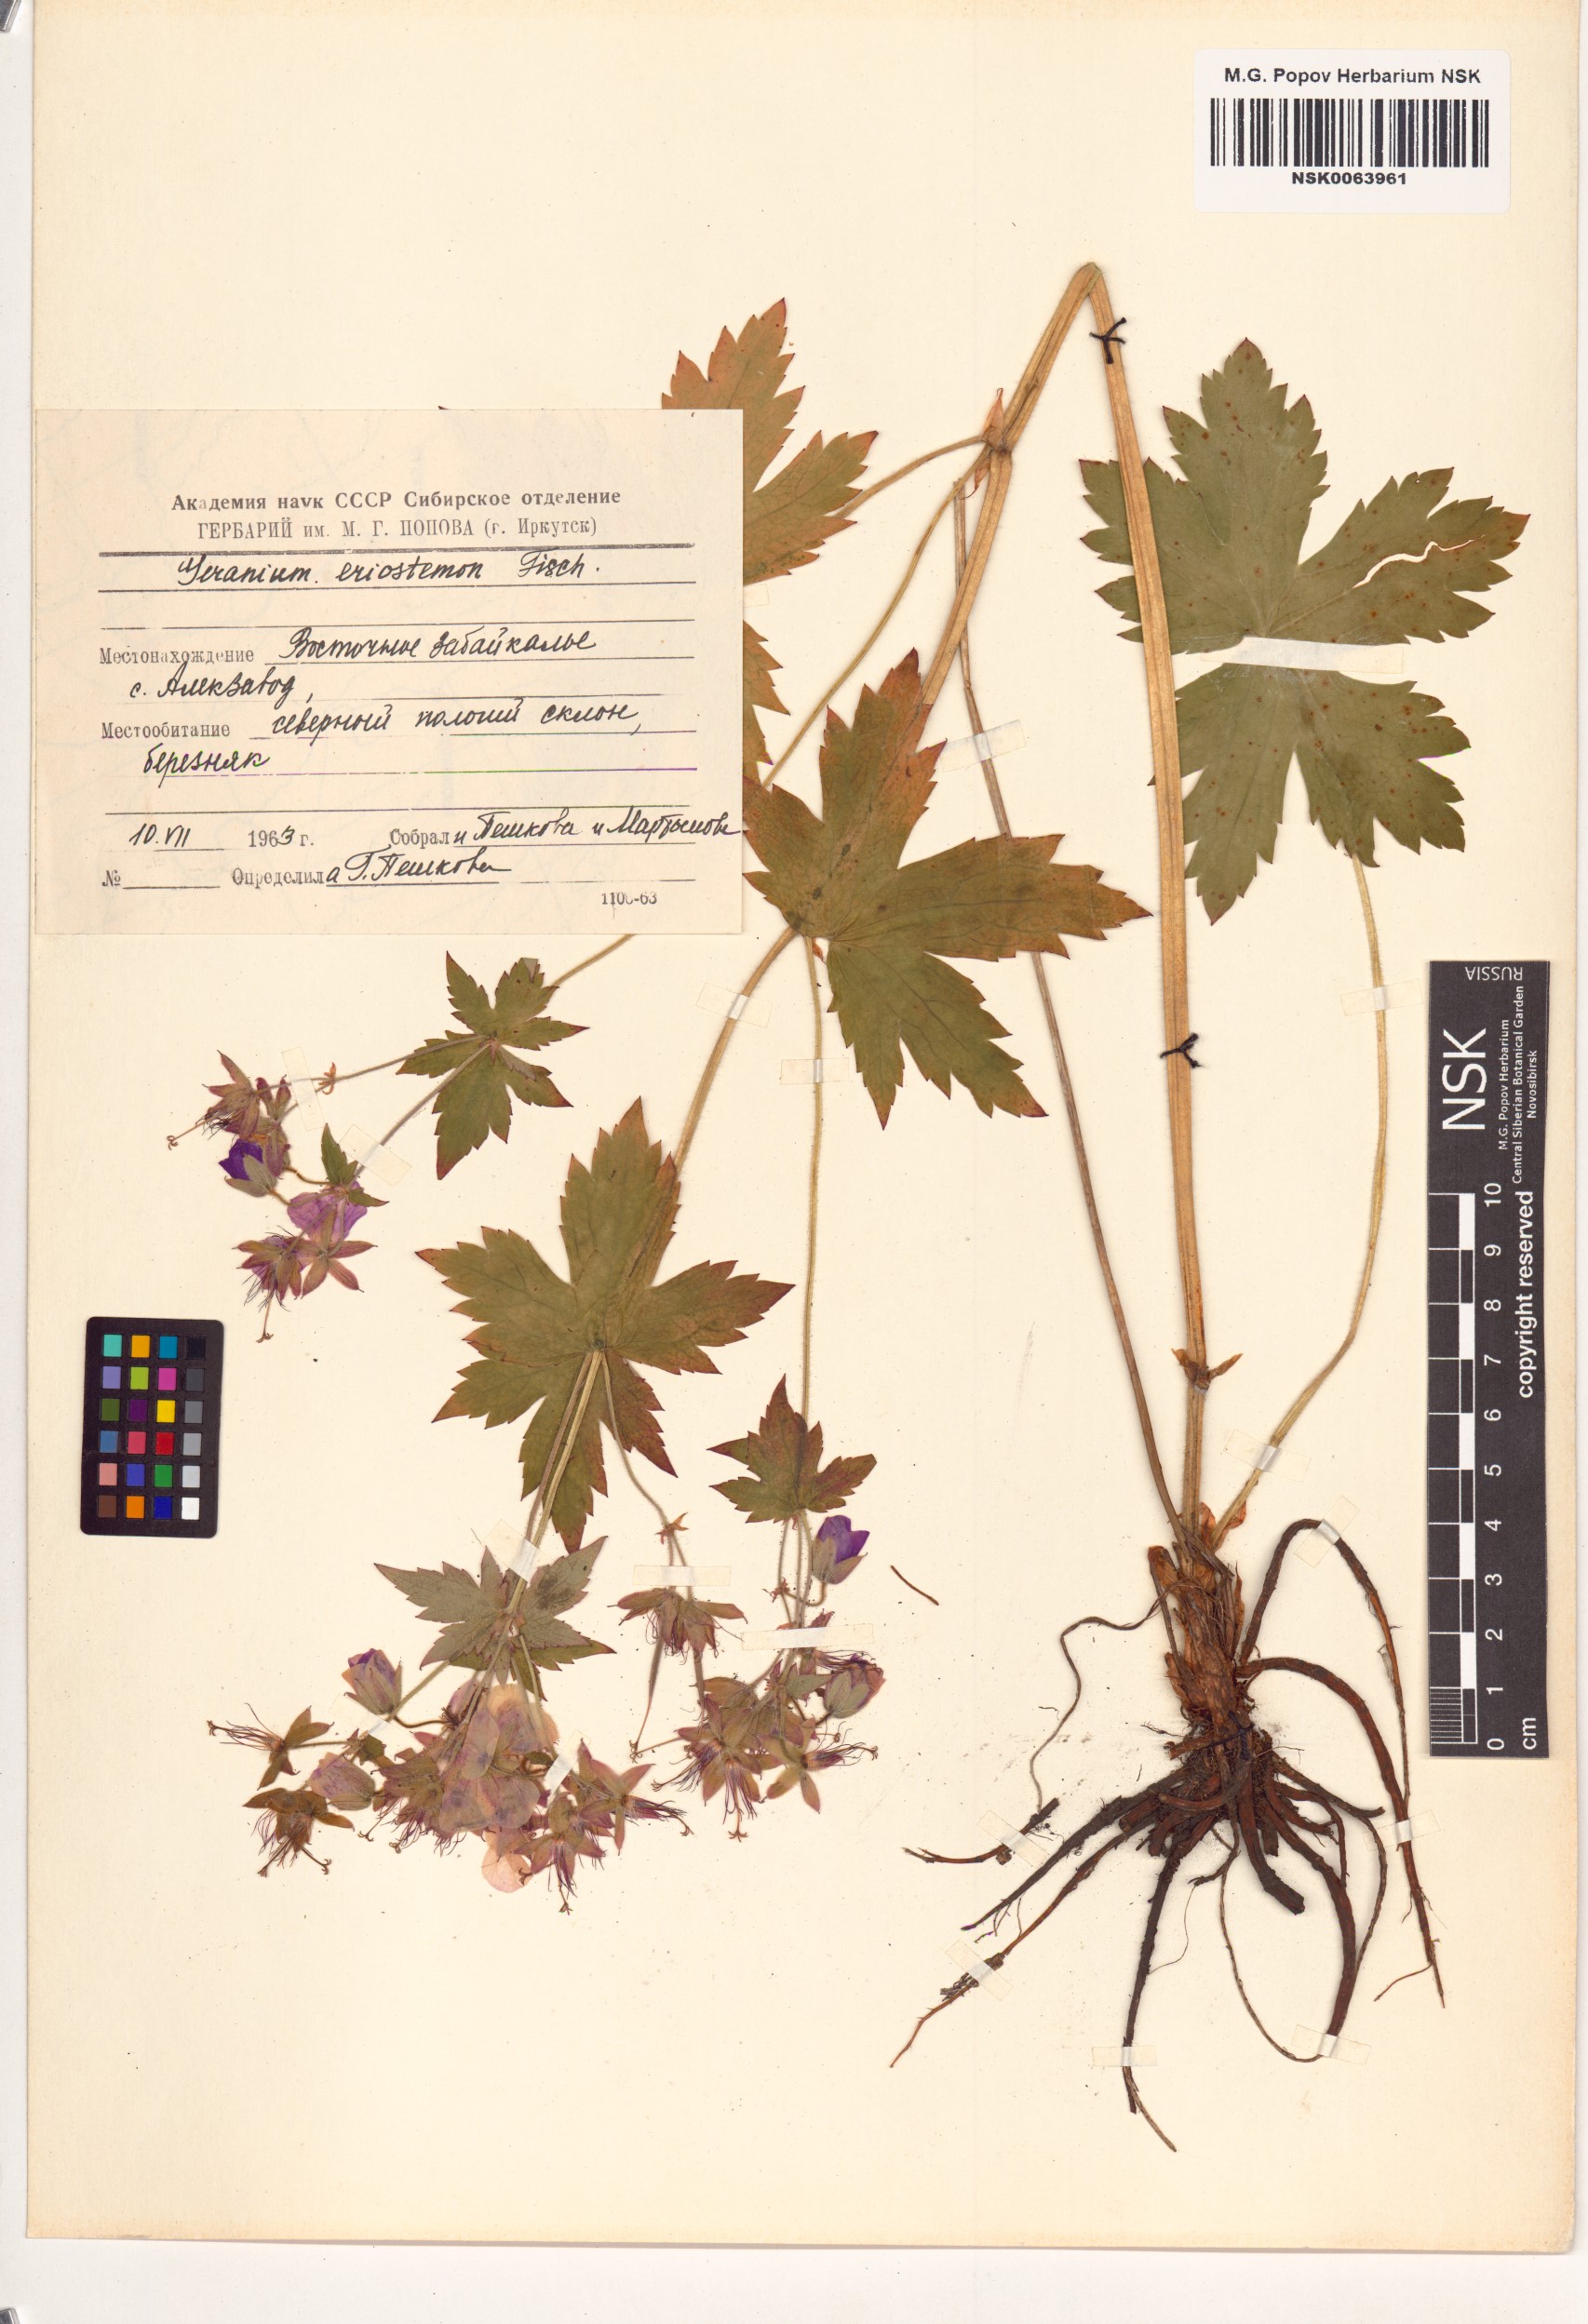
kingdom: Plantae
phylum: Tracheophyta
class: Magnoliopsida
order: Geraniales
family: Geraniaceae
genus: Geranium
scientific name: Geranium platyanthum
